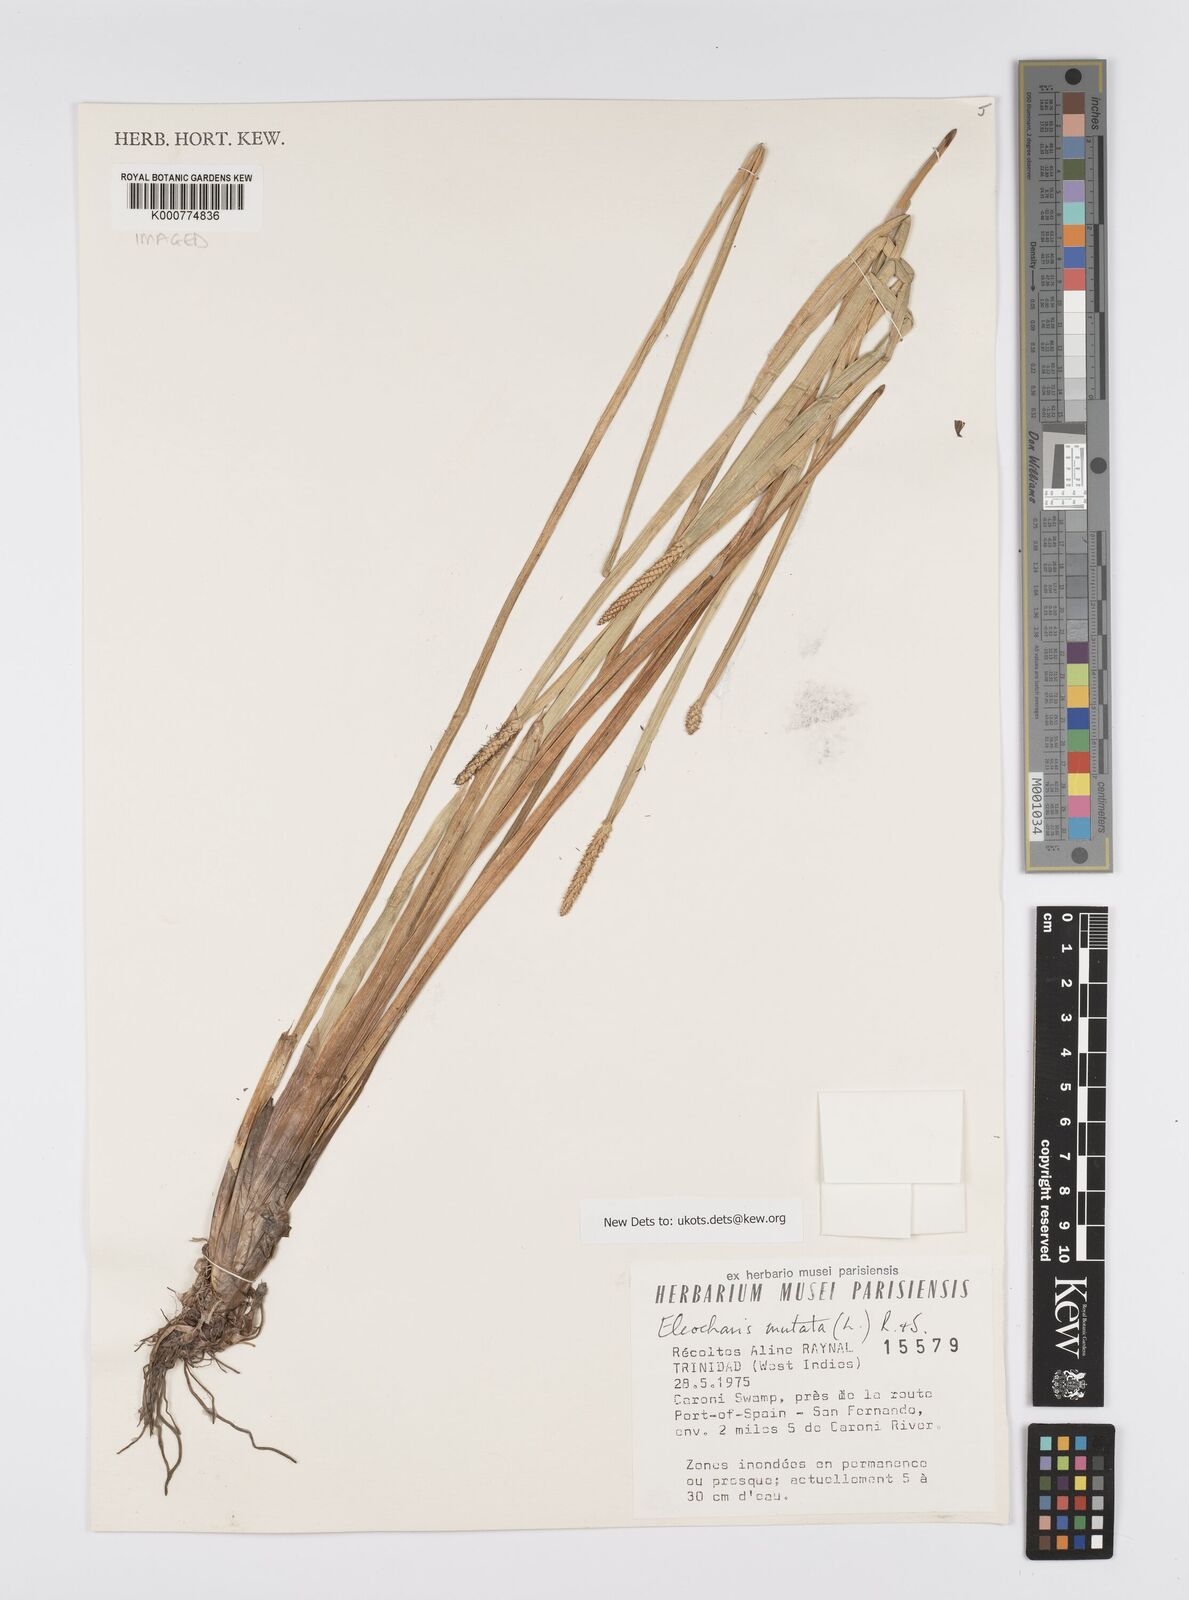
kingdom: Plantae
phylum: Tracheophyta
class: Liliopsida
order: Poales
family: Cyperaceae
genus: Eleocharis
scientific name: Eleocharis mutata
